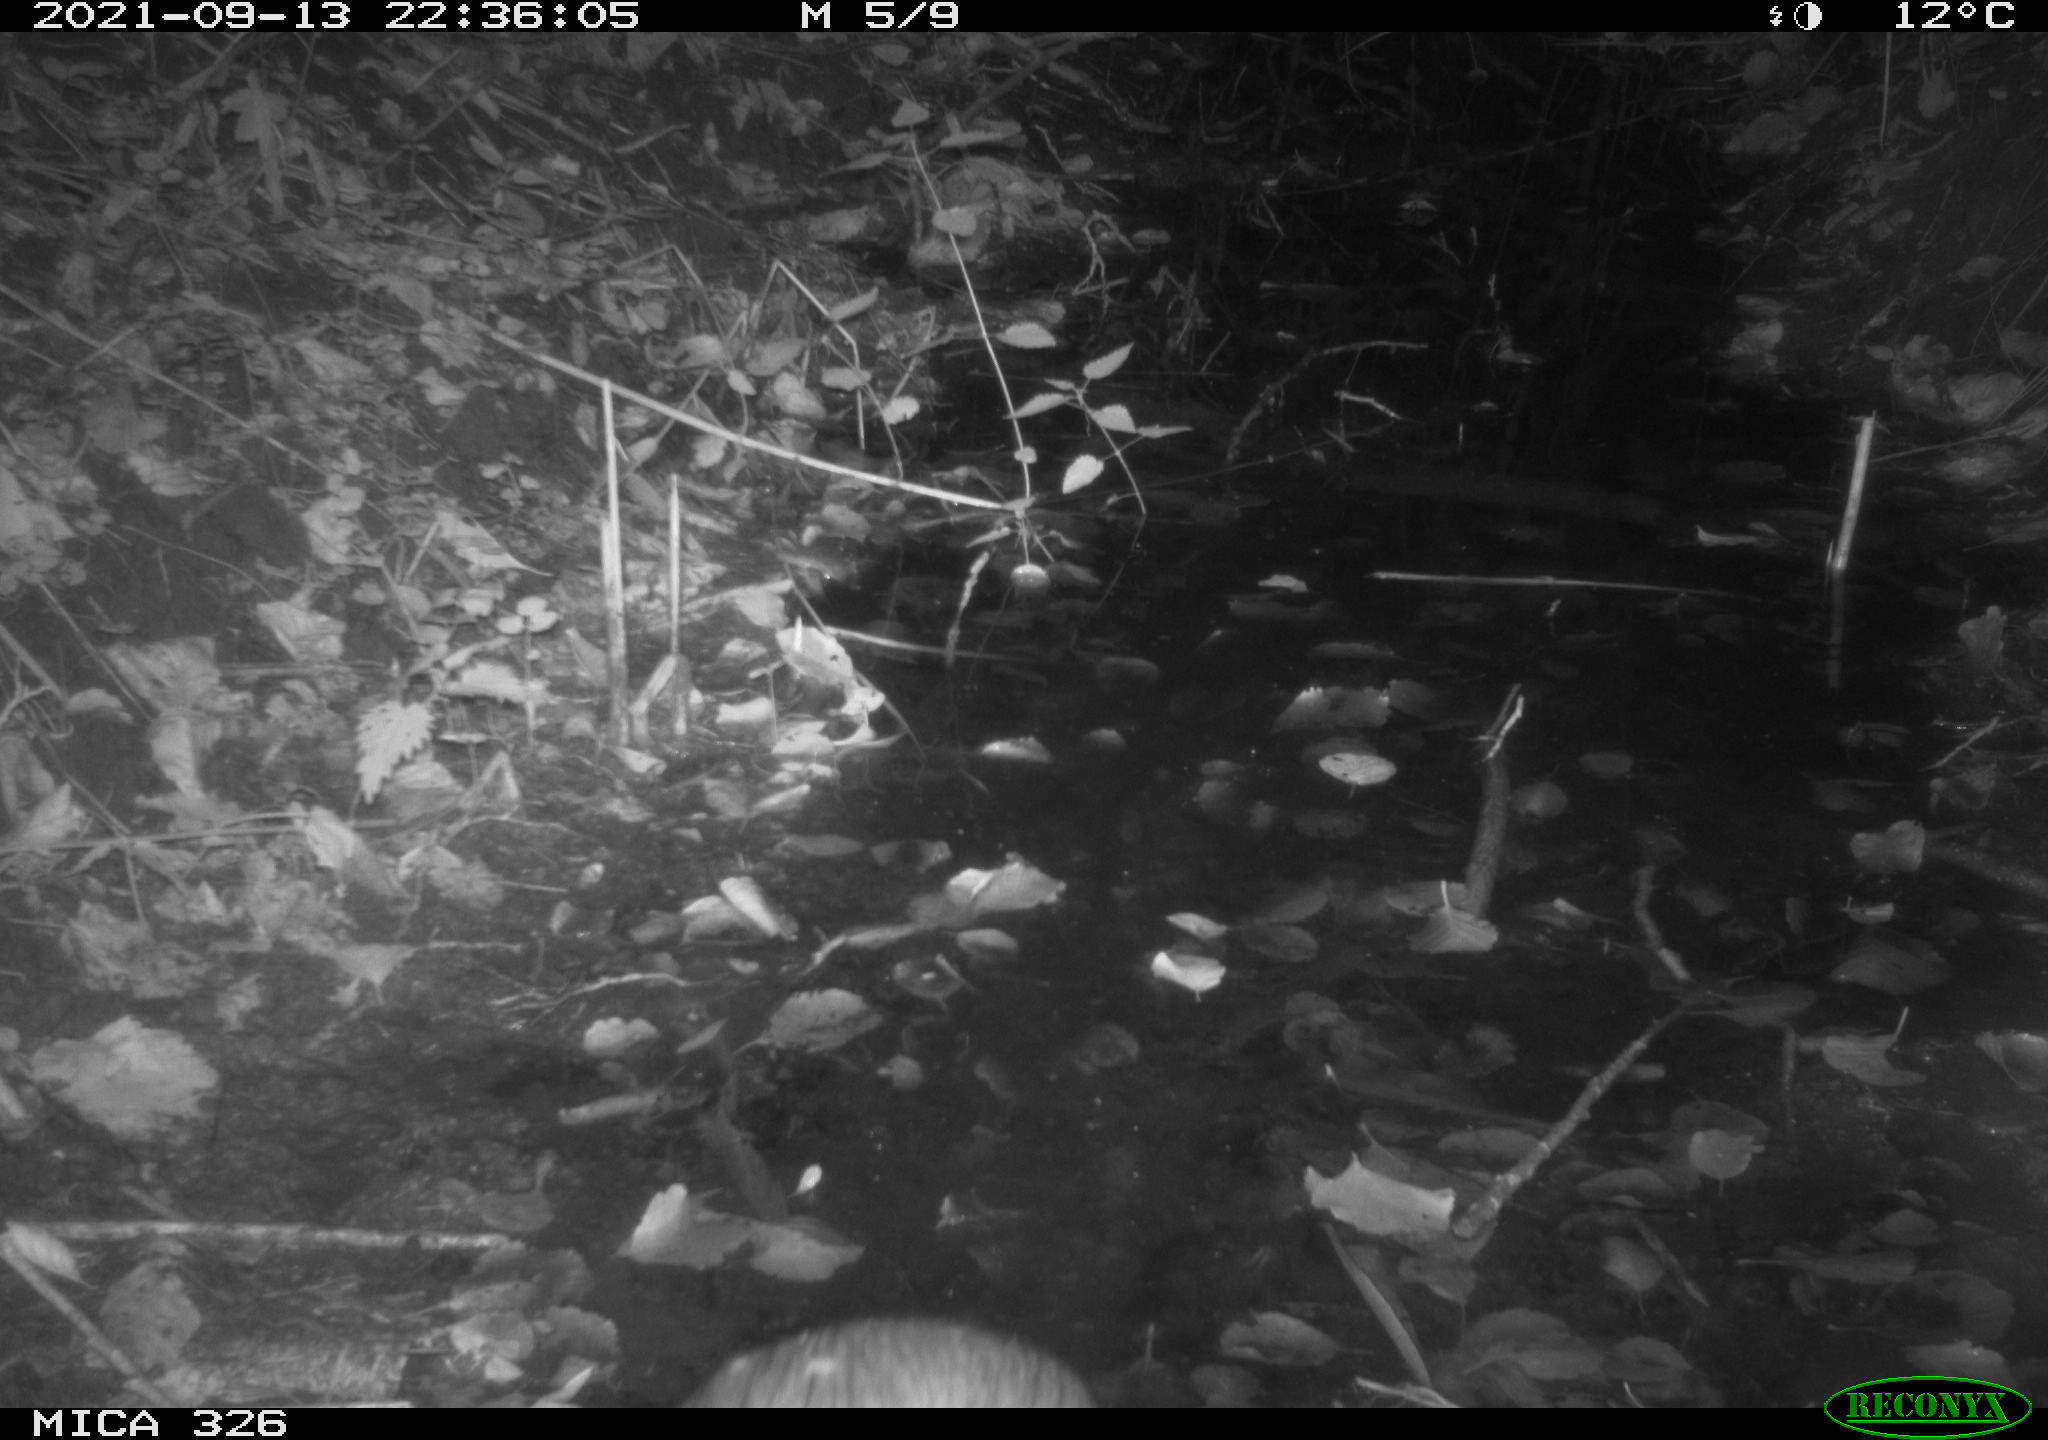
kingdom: Animalia
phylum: Chordata
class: Mammalia
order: Rodentia
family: Myocastoridae
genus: Myocastor
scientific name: Myocastor coypus
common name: Coypu
